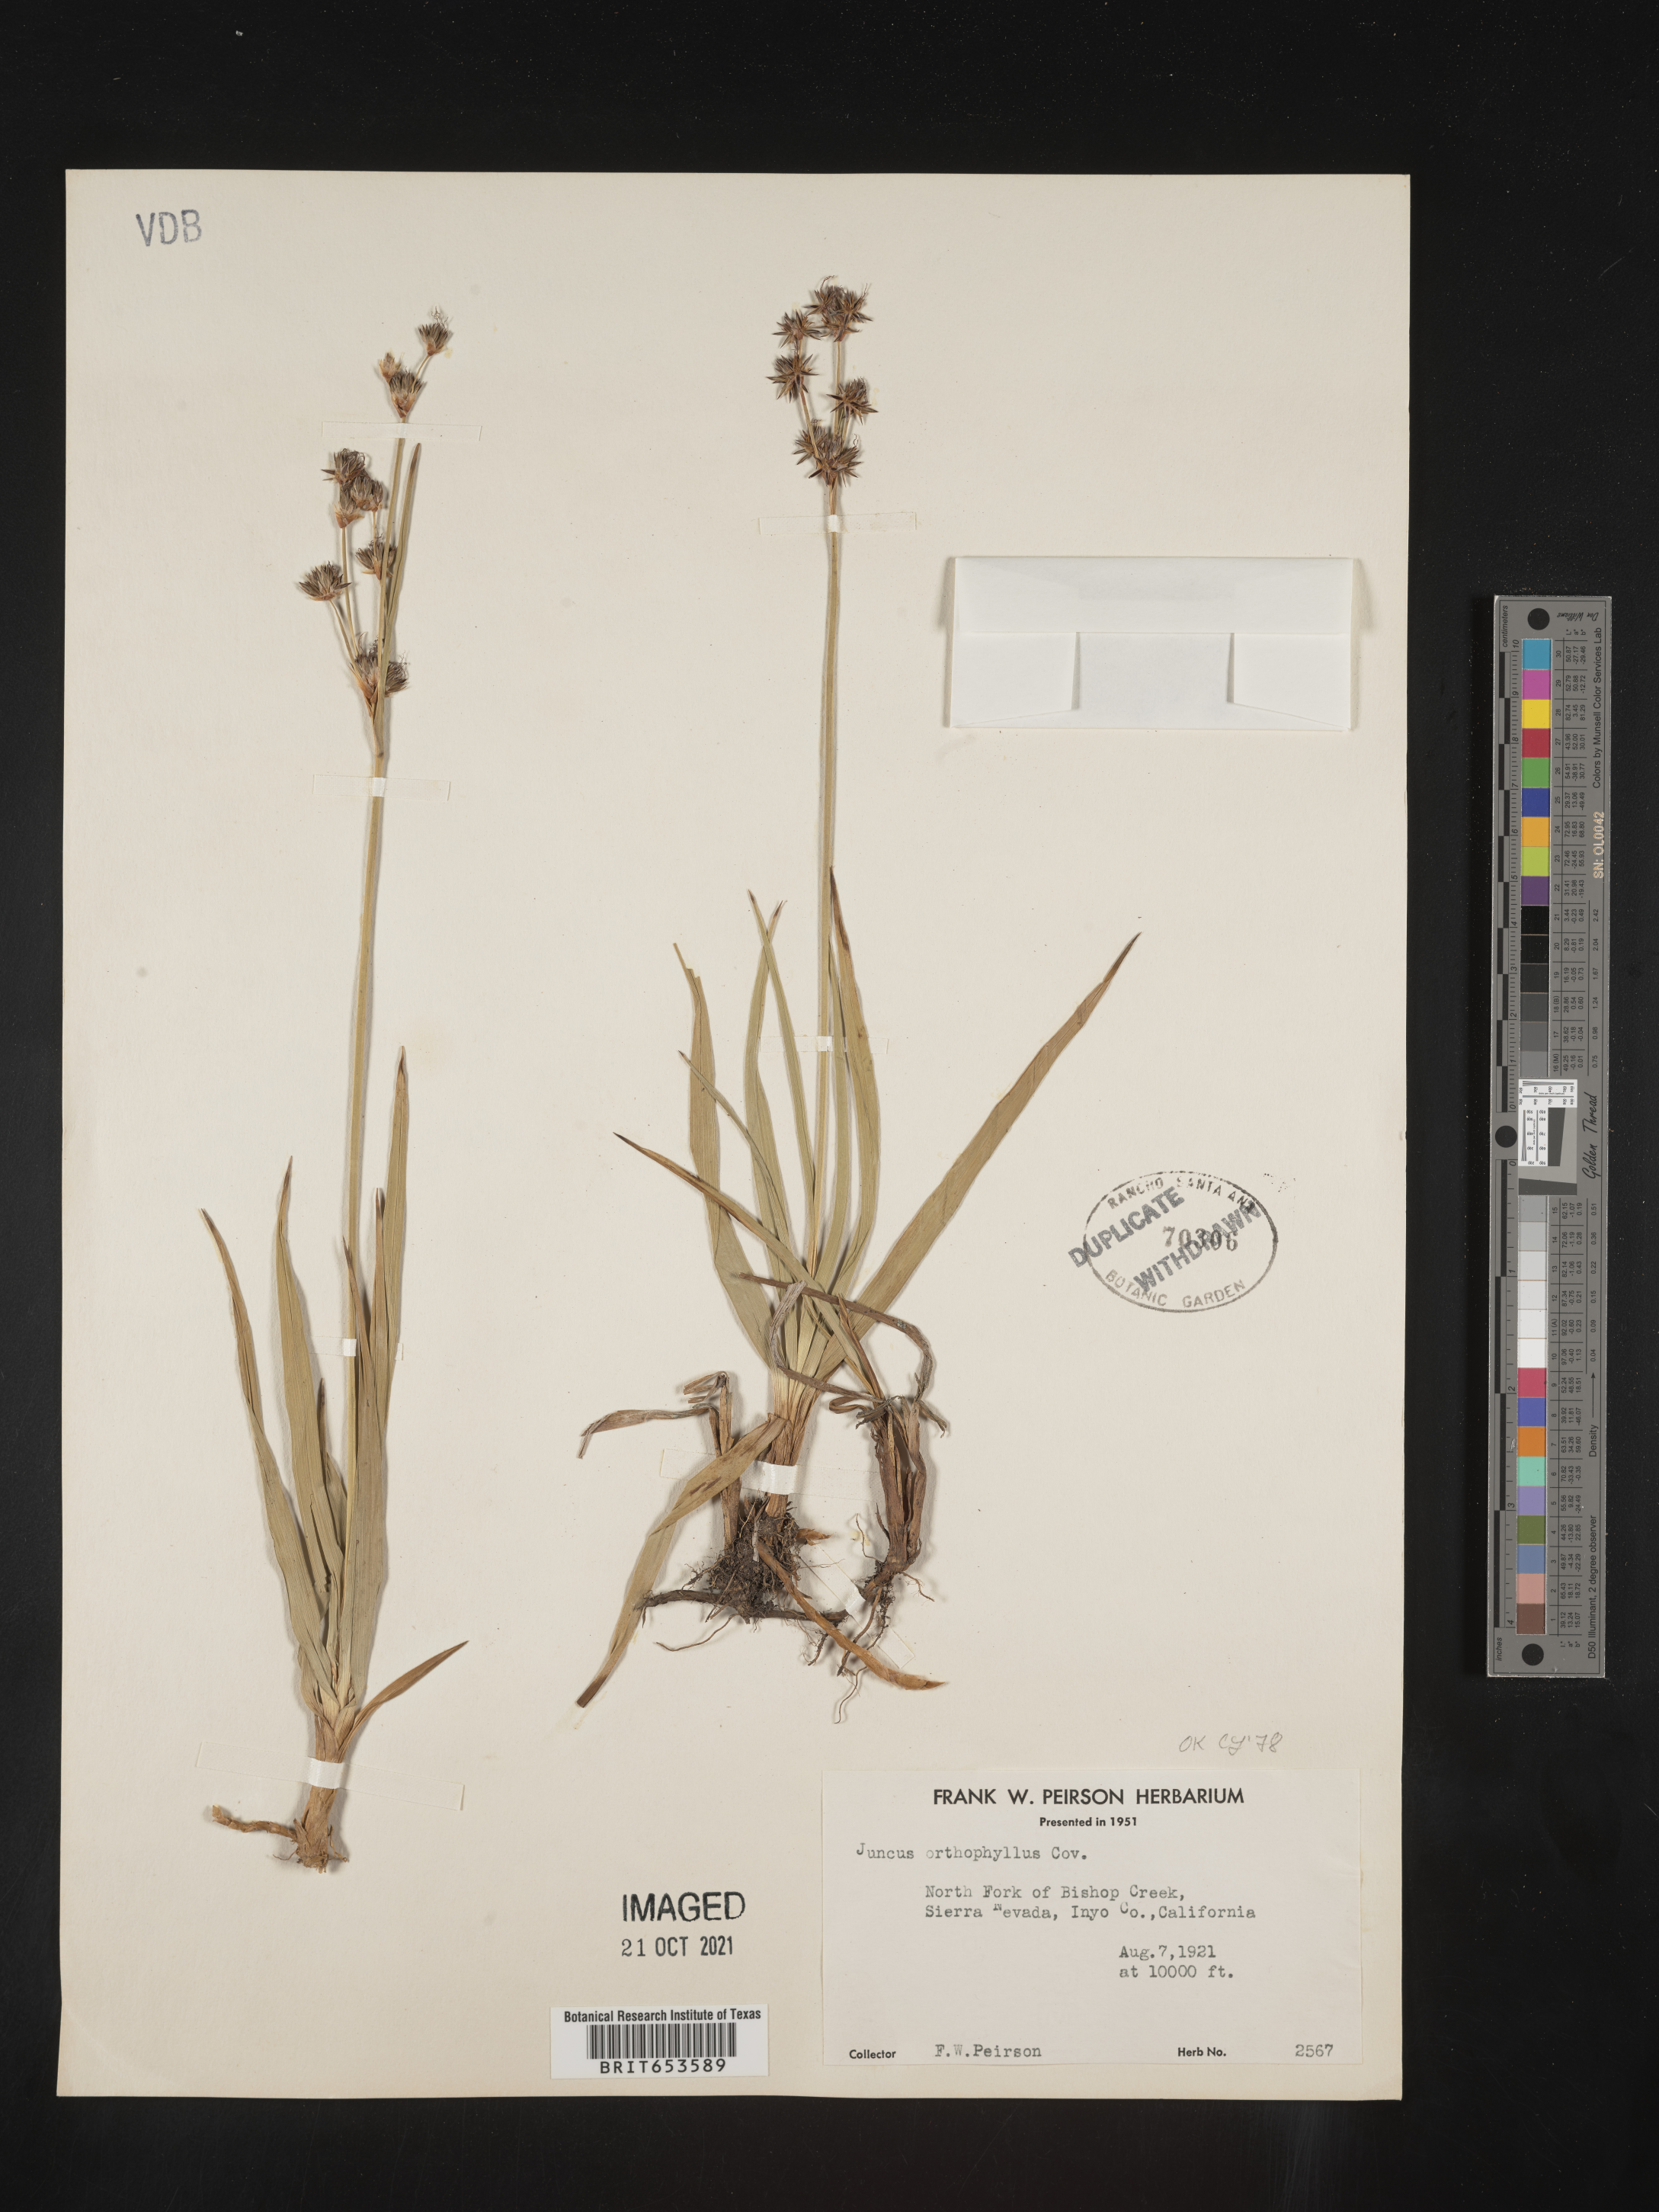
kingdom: Plantae
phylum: Tracheophyta
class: Liliopsida
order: Poales
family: Juncaceae
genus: Juncus
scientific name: Juncus orthophyllus
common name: Straight-leaf rush
